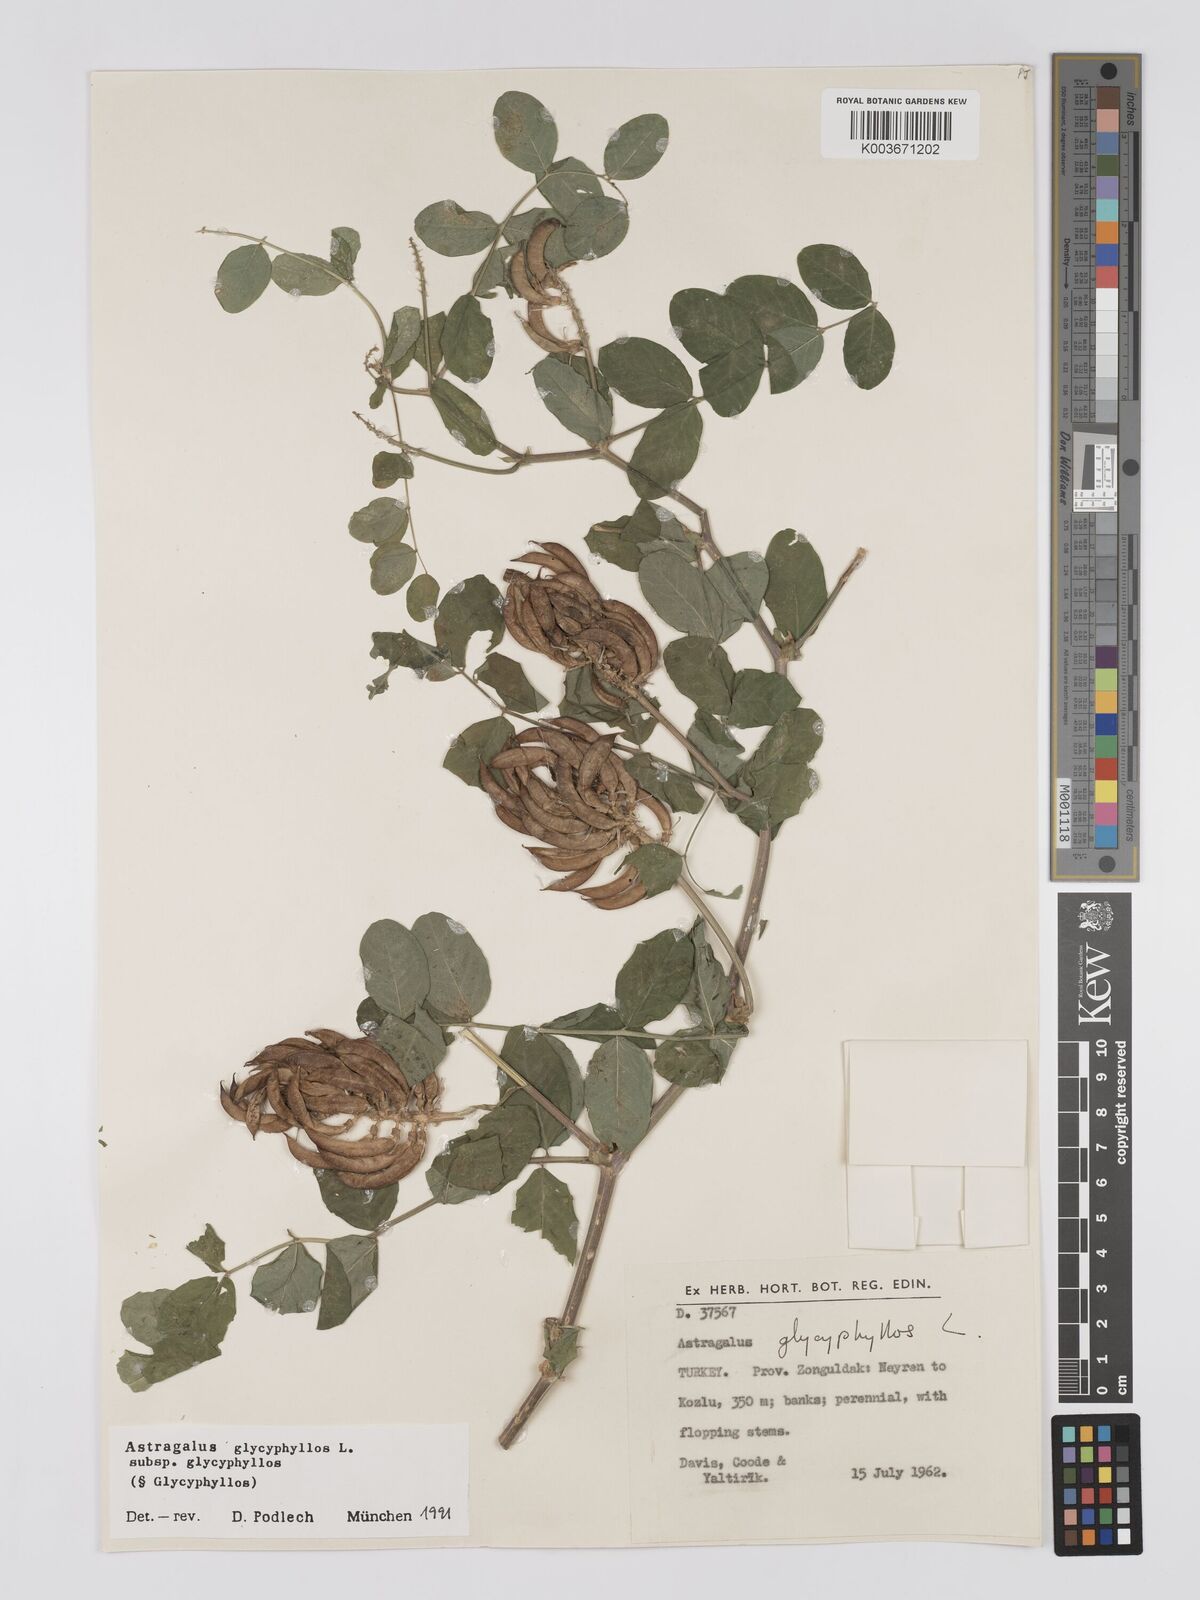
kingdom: Plantae
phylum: Tracheophyta
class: Magnoliopsida
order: Fabales
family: Fabaceae
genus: Astragalus
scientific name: Astragalus glycyphyllos
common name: Wild liquorice
